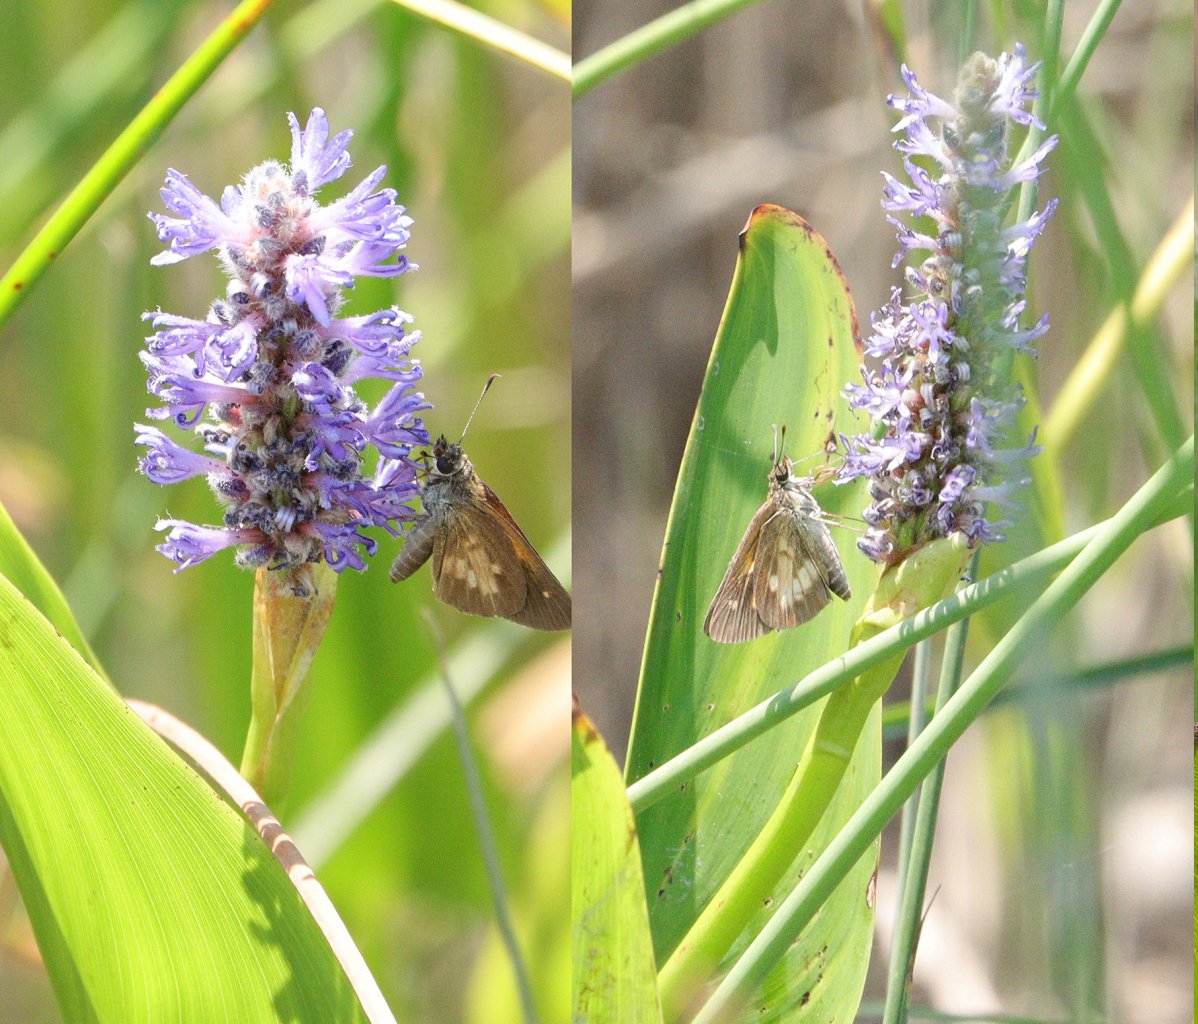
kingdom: Animalia
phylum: Arthropoda
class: Insecta
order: Lepidoptera
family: Hesperiidae
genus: Poanes
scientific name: Poanes viator
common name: Broad-winged Skipper
